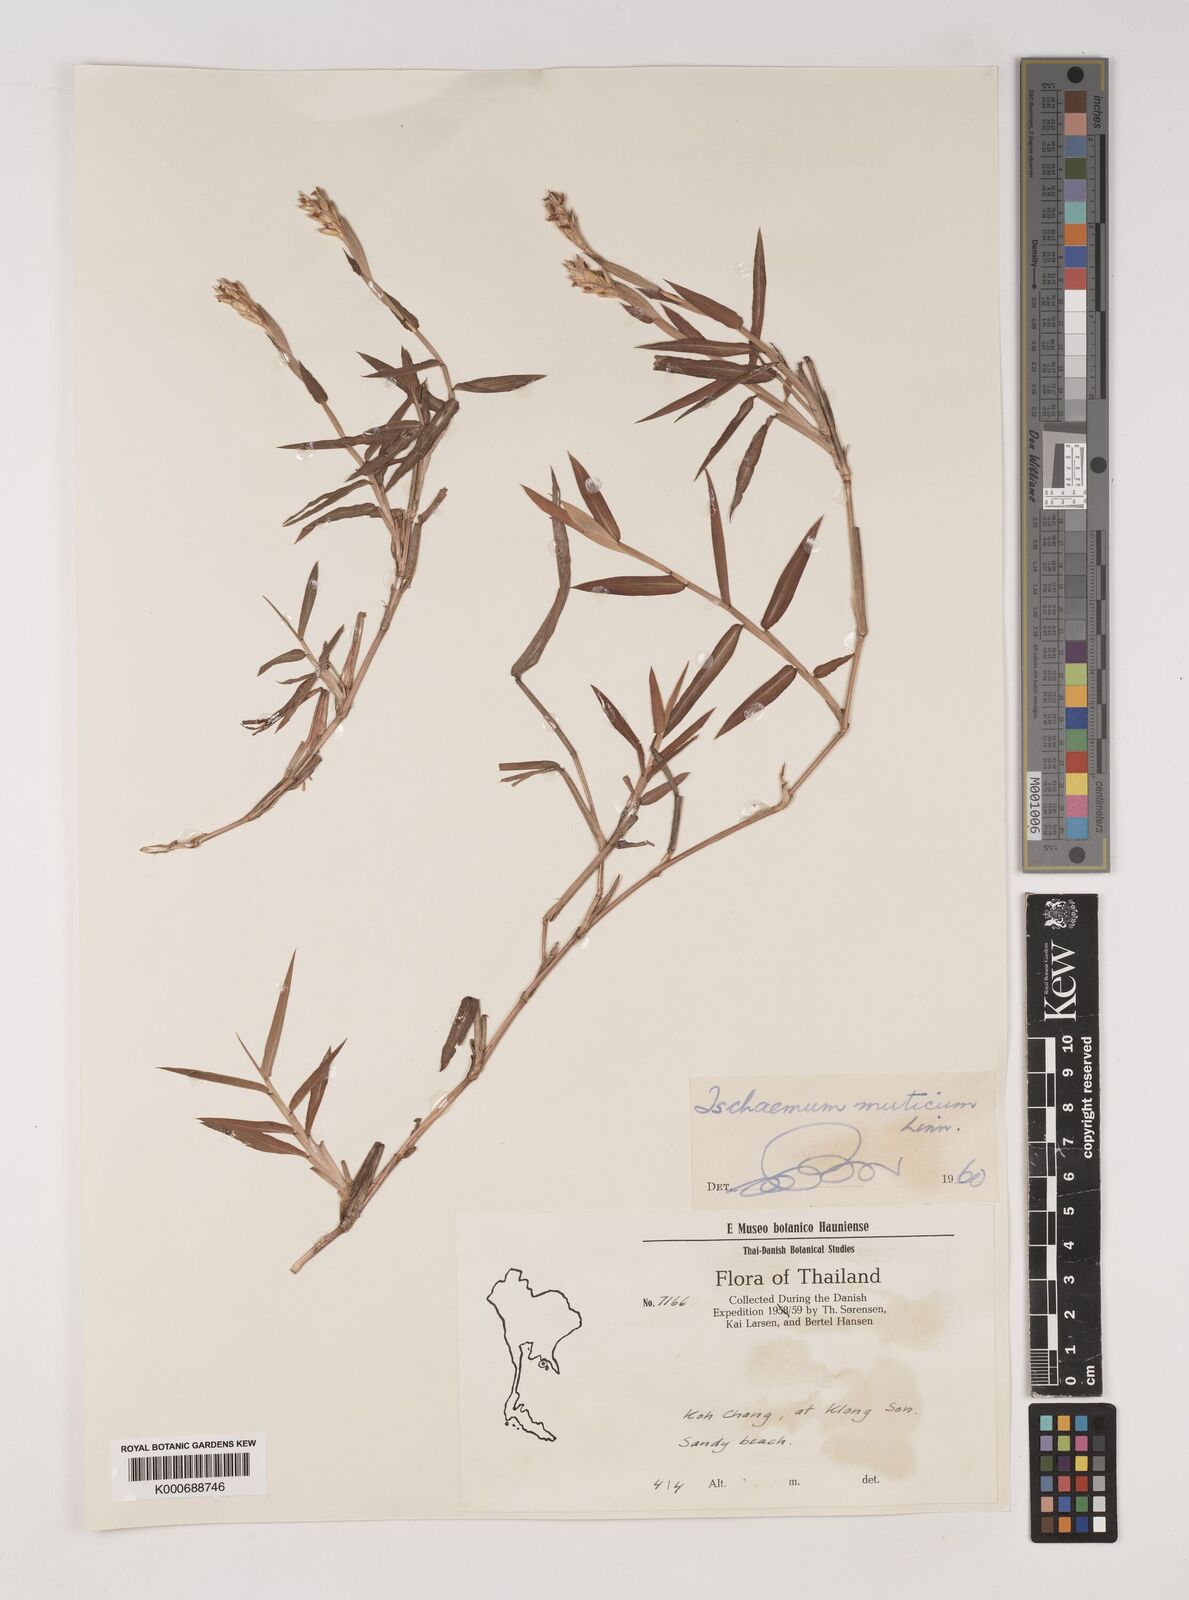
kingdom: Plantae
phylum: Tracheophyta
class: Liliopsida
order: Poales
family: Poaceae
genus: Ischaemum
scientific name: Ischaemum muticum
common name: Drought grass
